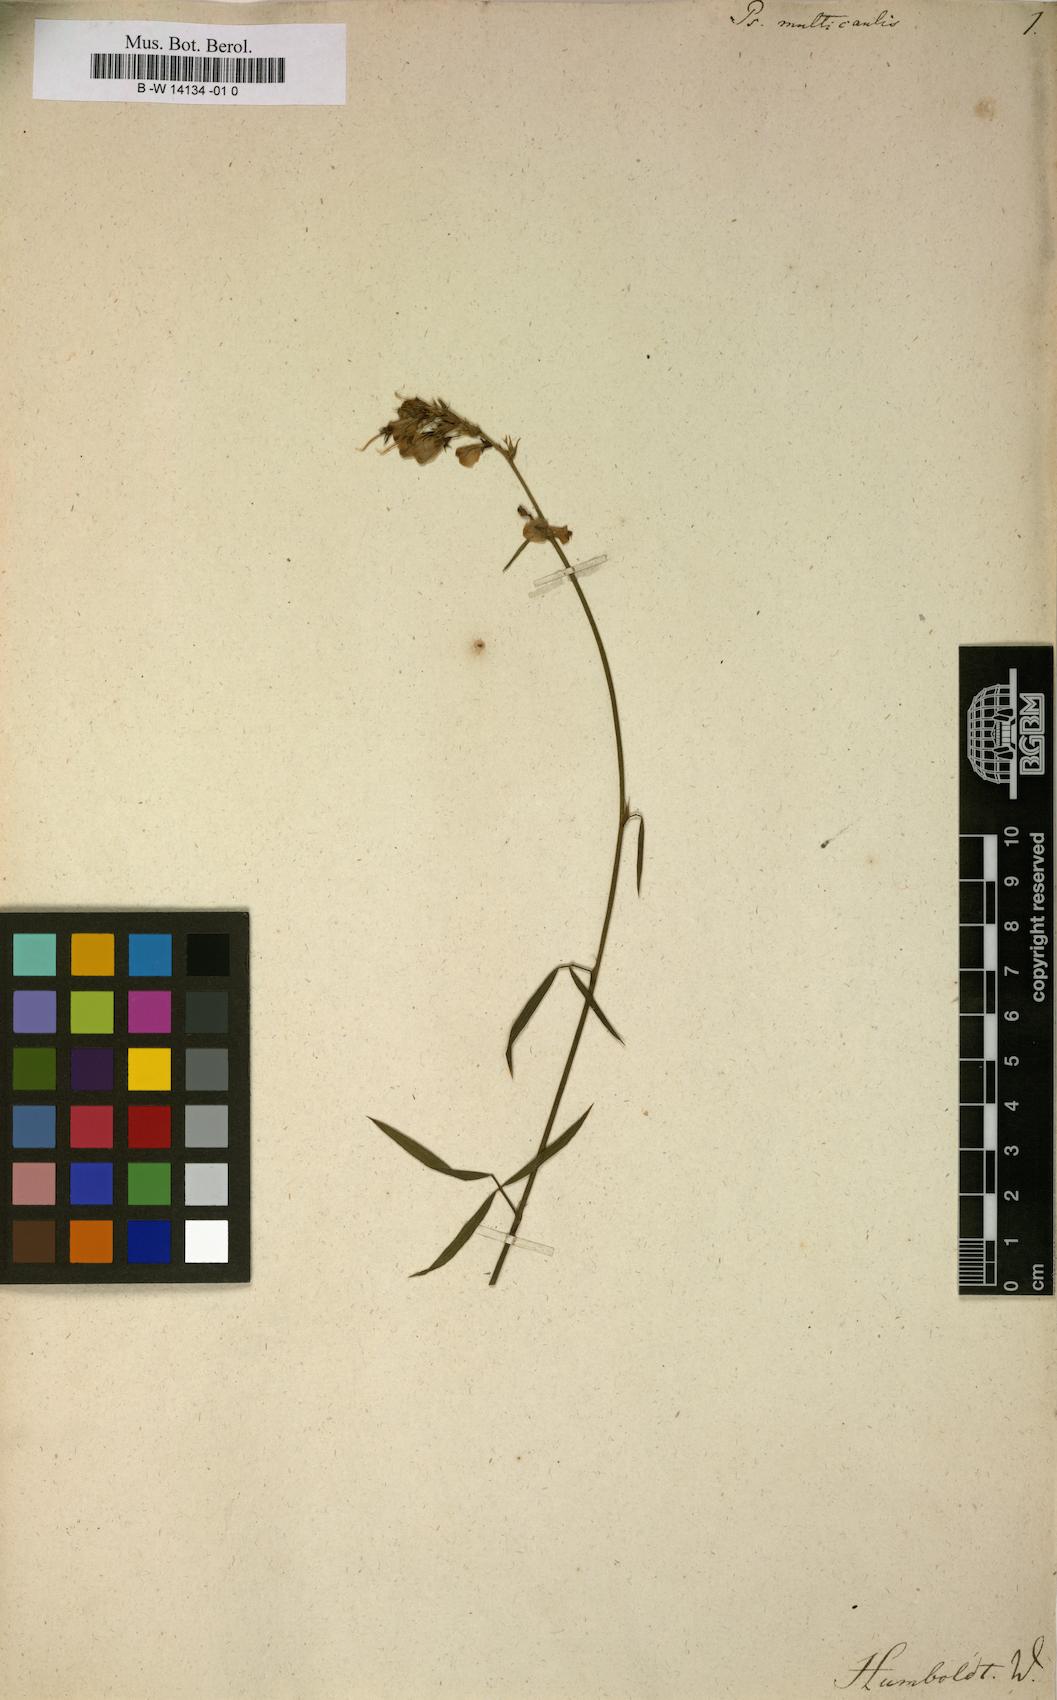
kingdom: Plantae
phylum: Tracheophyta
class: Magnoliopsida
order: Fabales
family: Fabaceae
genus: Psoralea
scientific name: Psoralea ensifolia
